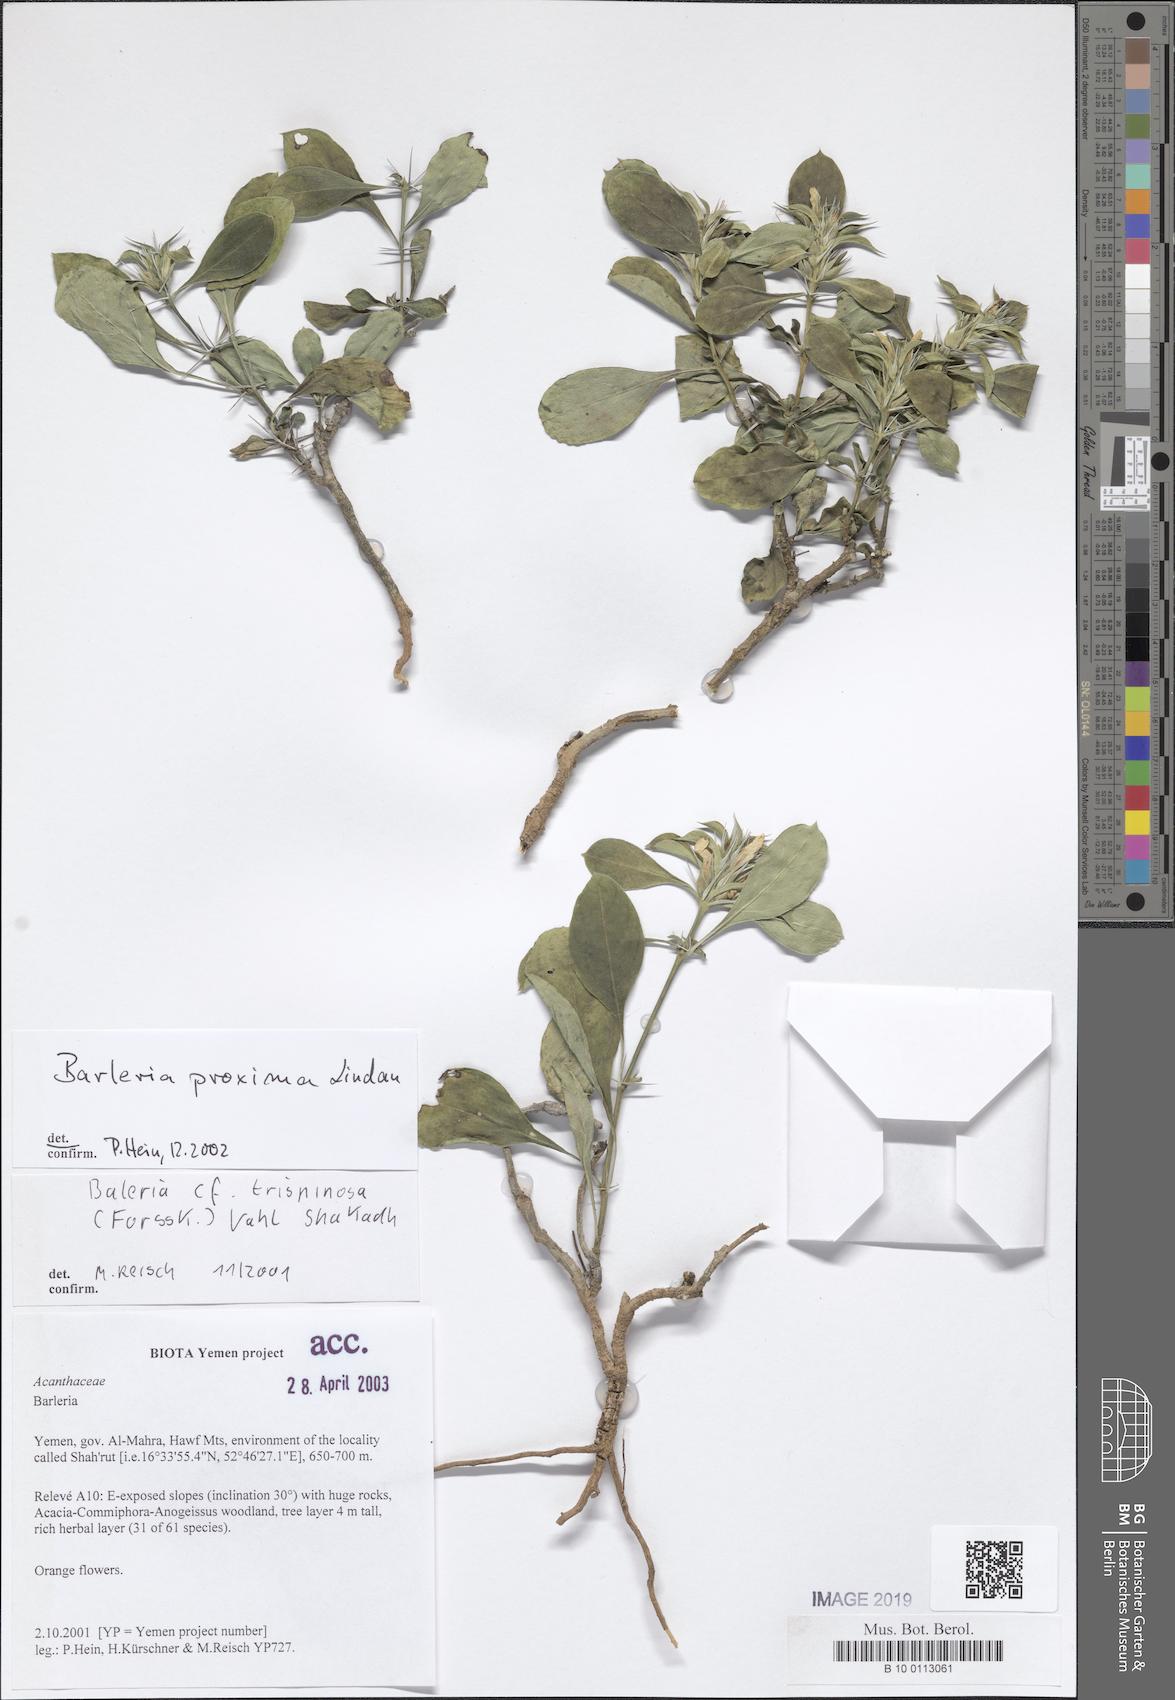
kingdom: Plantae
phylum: Tracheophyta
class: Magnoliopsida
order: Lamiales
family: Acanthaceae
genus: Barleria
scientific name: Barleria proxima
